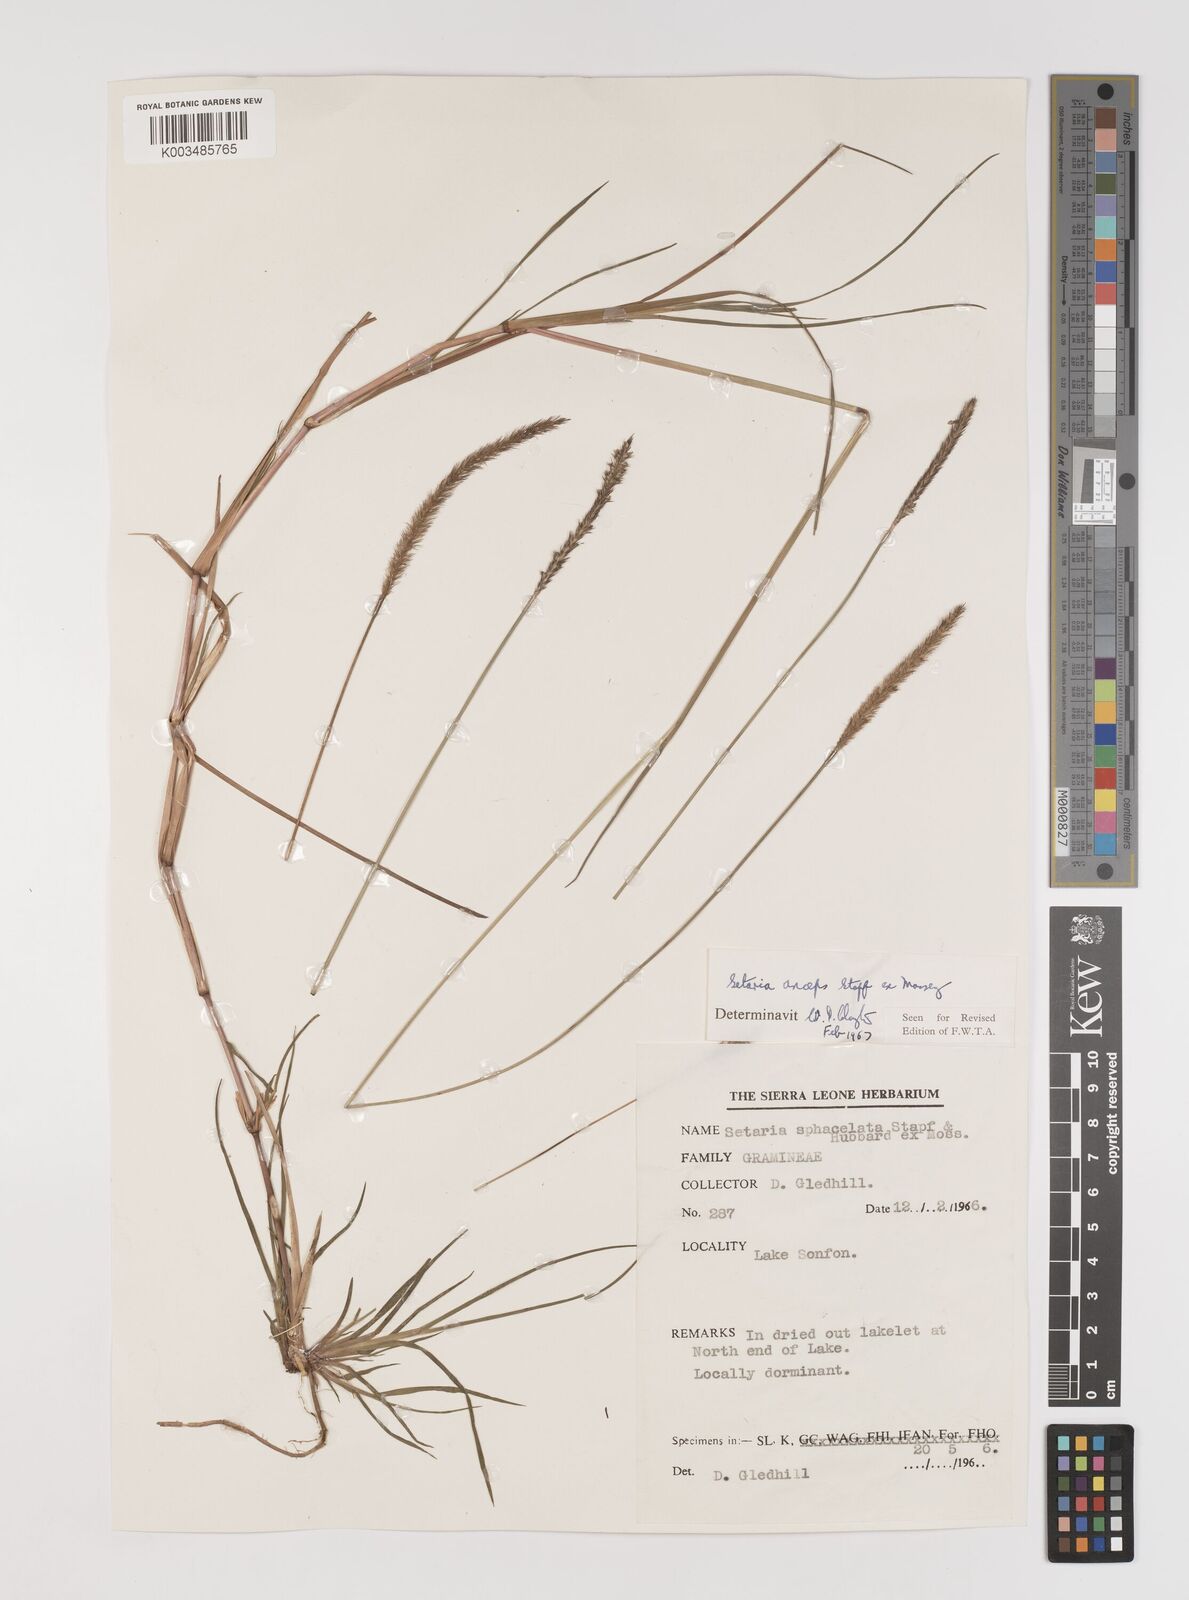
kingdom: Plantae
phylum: Tracheophyta
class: Liliopsida
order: Poales
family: Poaceae
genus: Setaria
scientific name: Setaria sphacelata
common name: African bristlegrass
